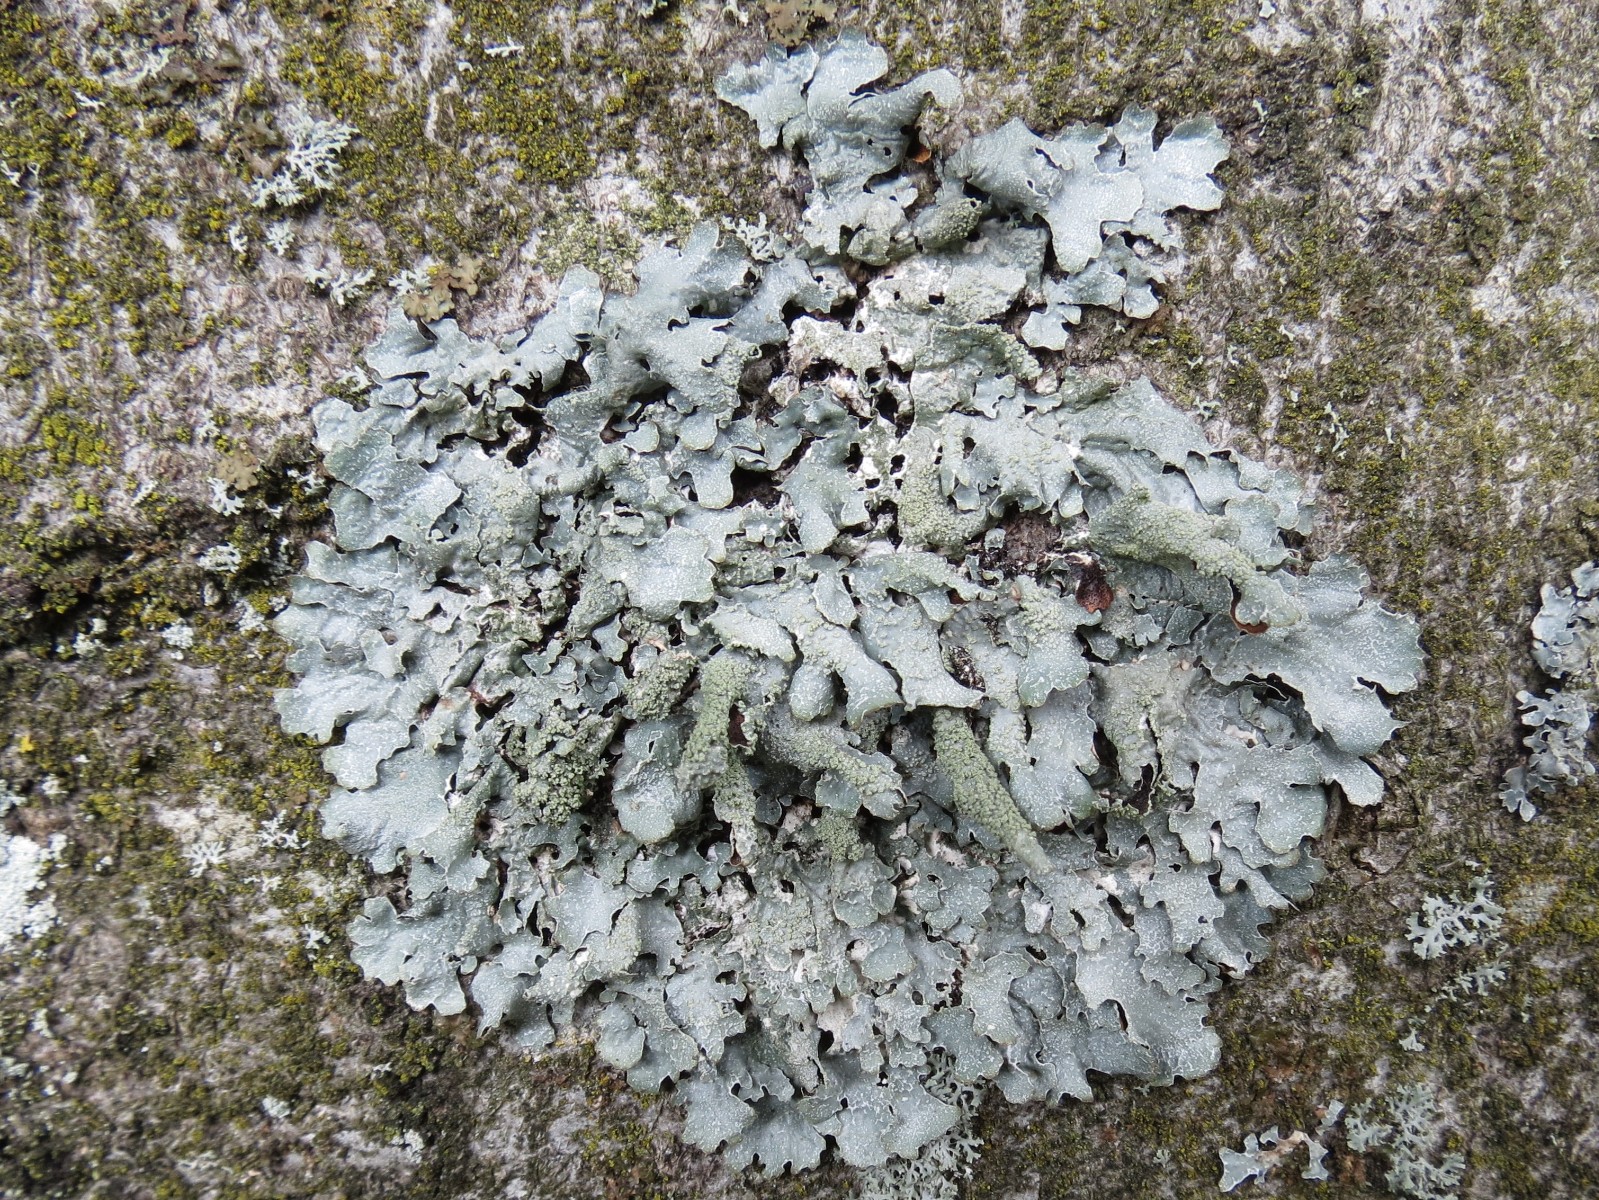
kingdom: Fungi
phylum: Ascomycota
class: Lecanoromycetes
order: Lecanorales
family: Parmeliaceae
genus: Parmelia
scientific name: Parmelia submontana
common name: langlobet skållav
